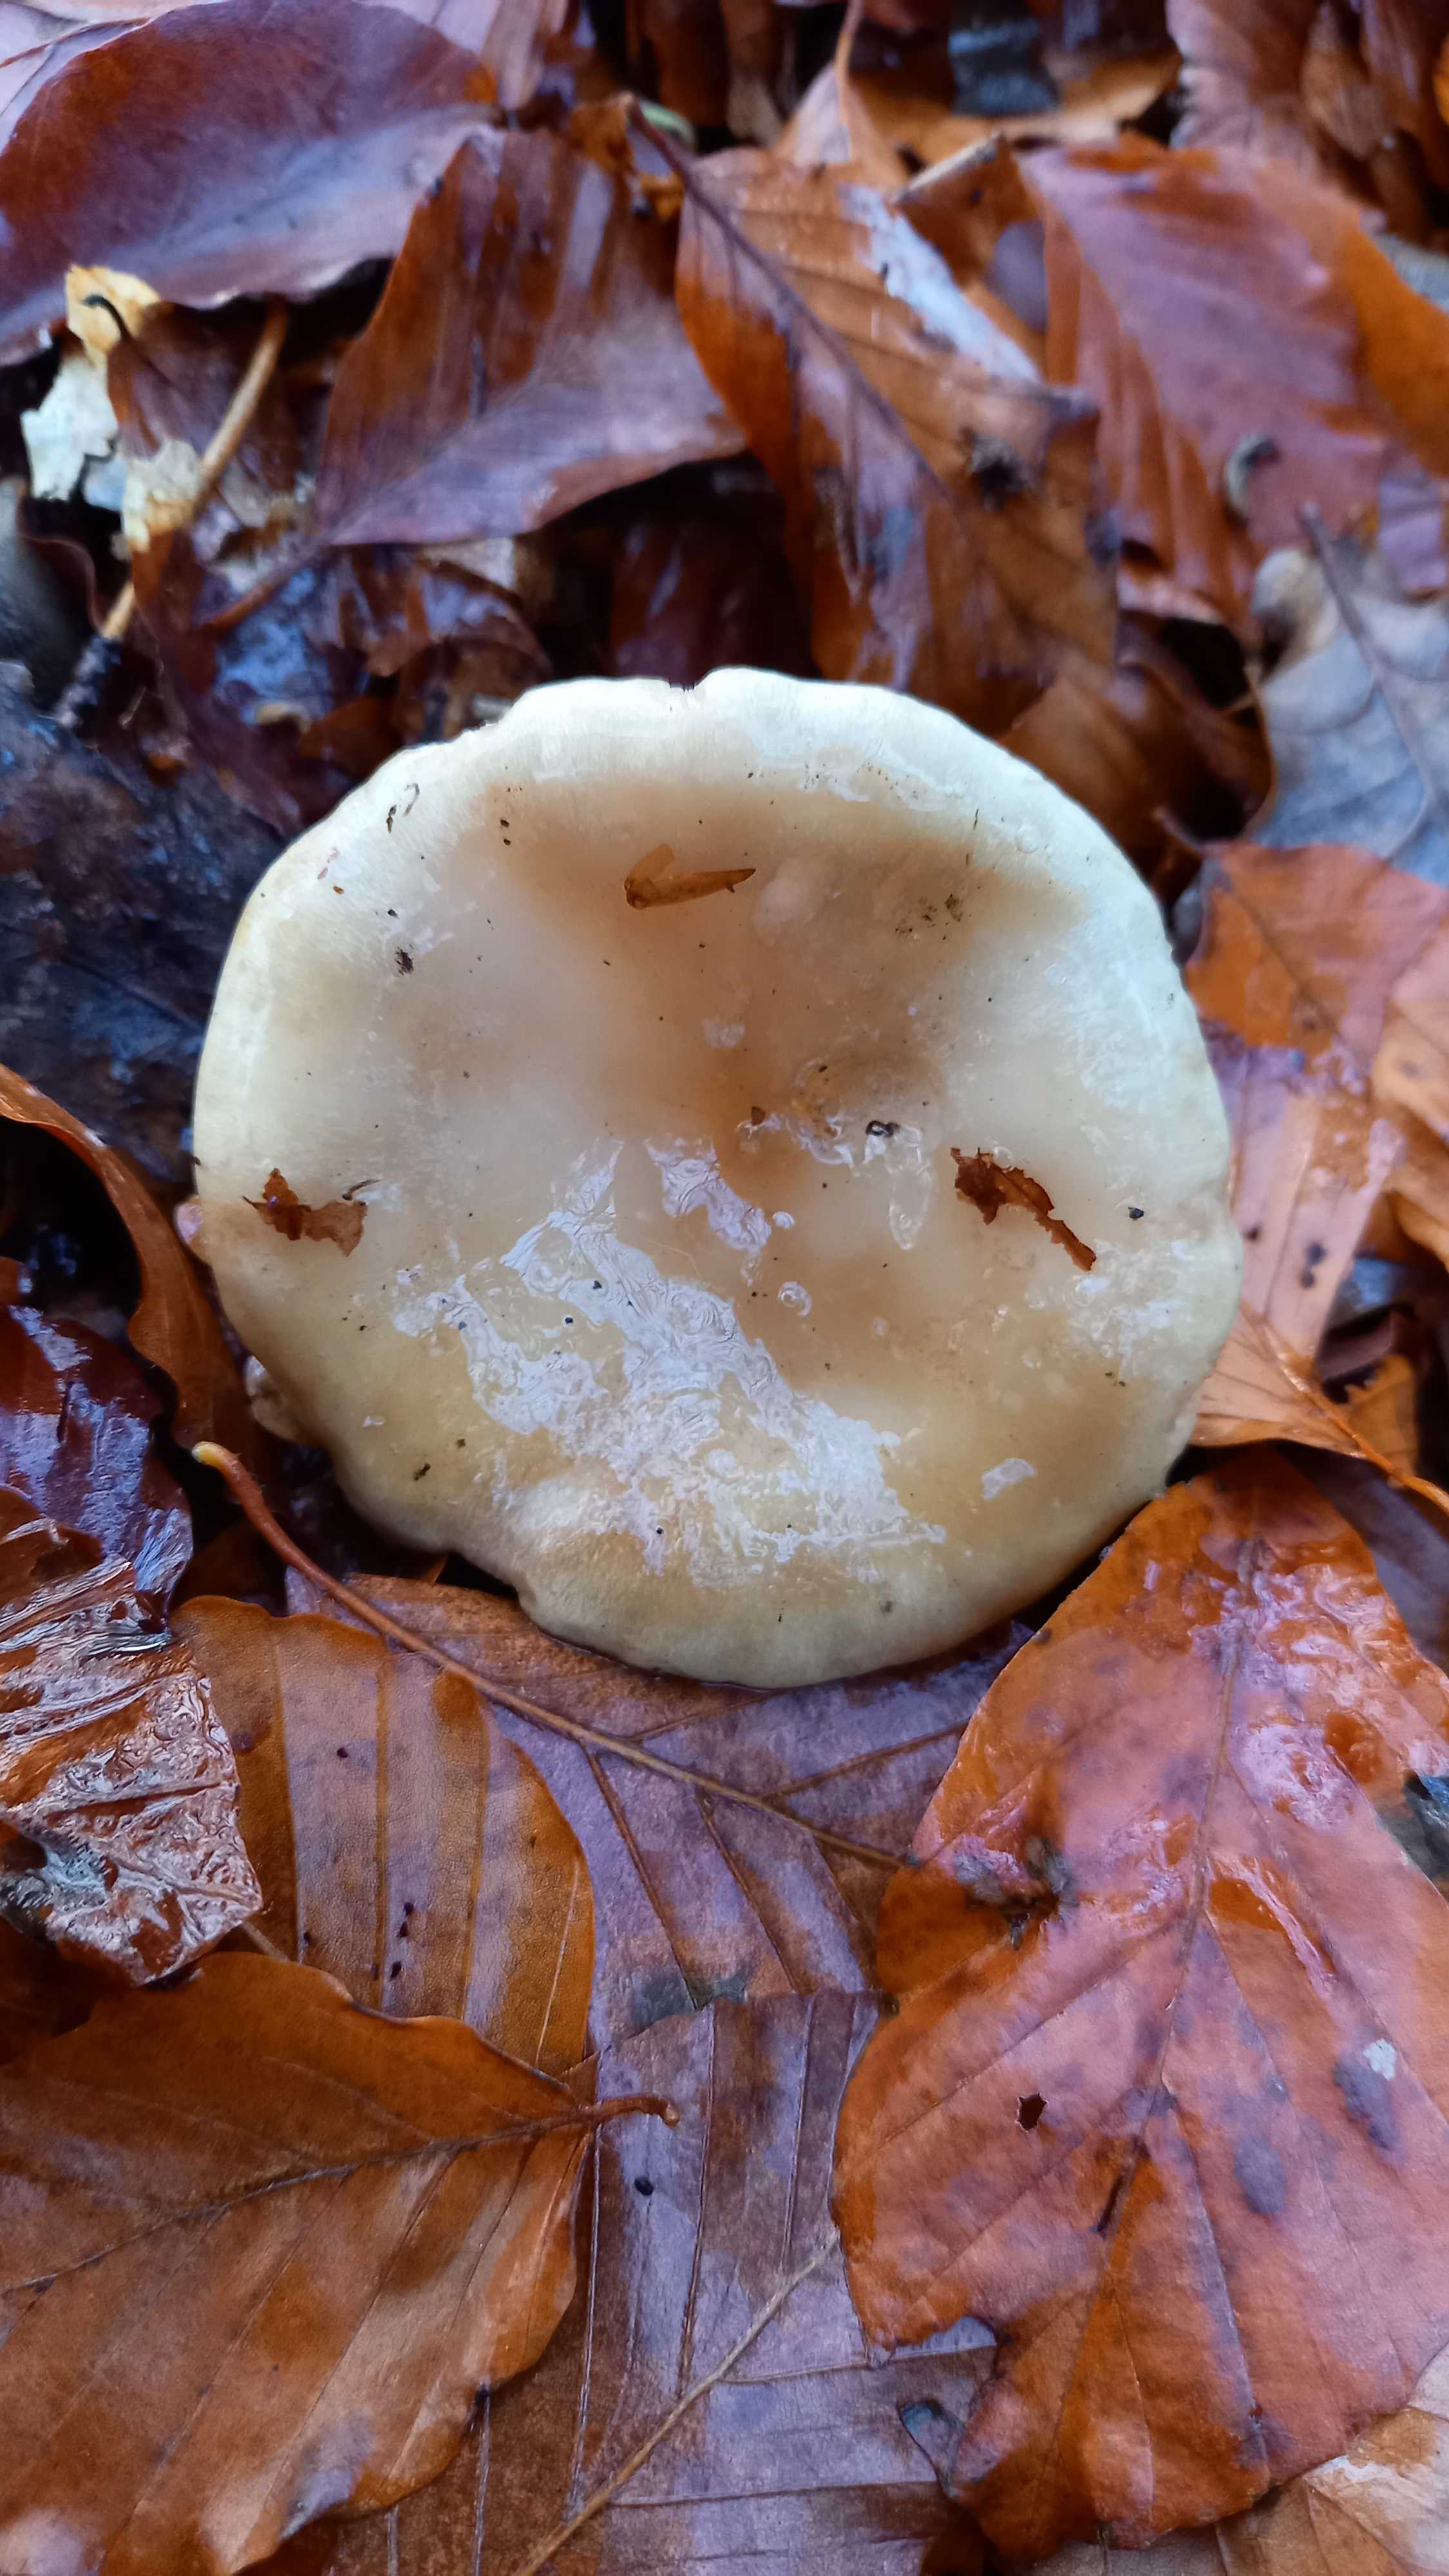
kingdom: Fungi
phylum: Basidiomycota
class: Agaricomycetes
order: Russulales
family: Russulaceae
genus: Lactarius
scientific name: Lactarius blennius
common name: dråbeplettet mælkehat
